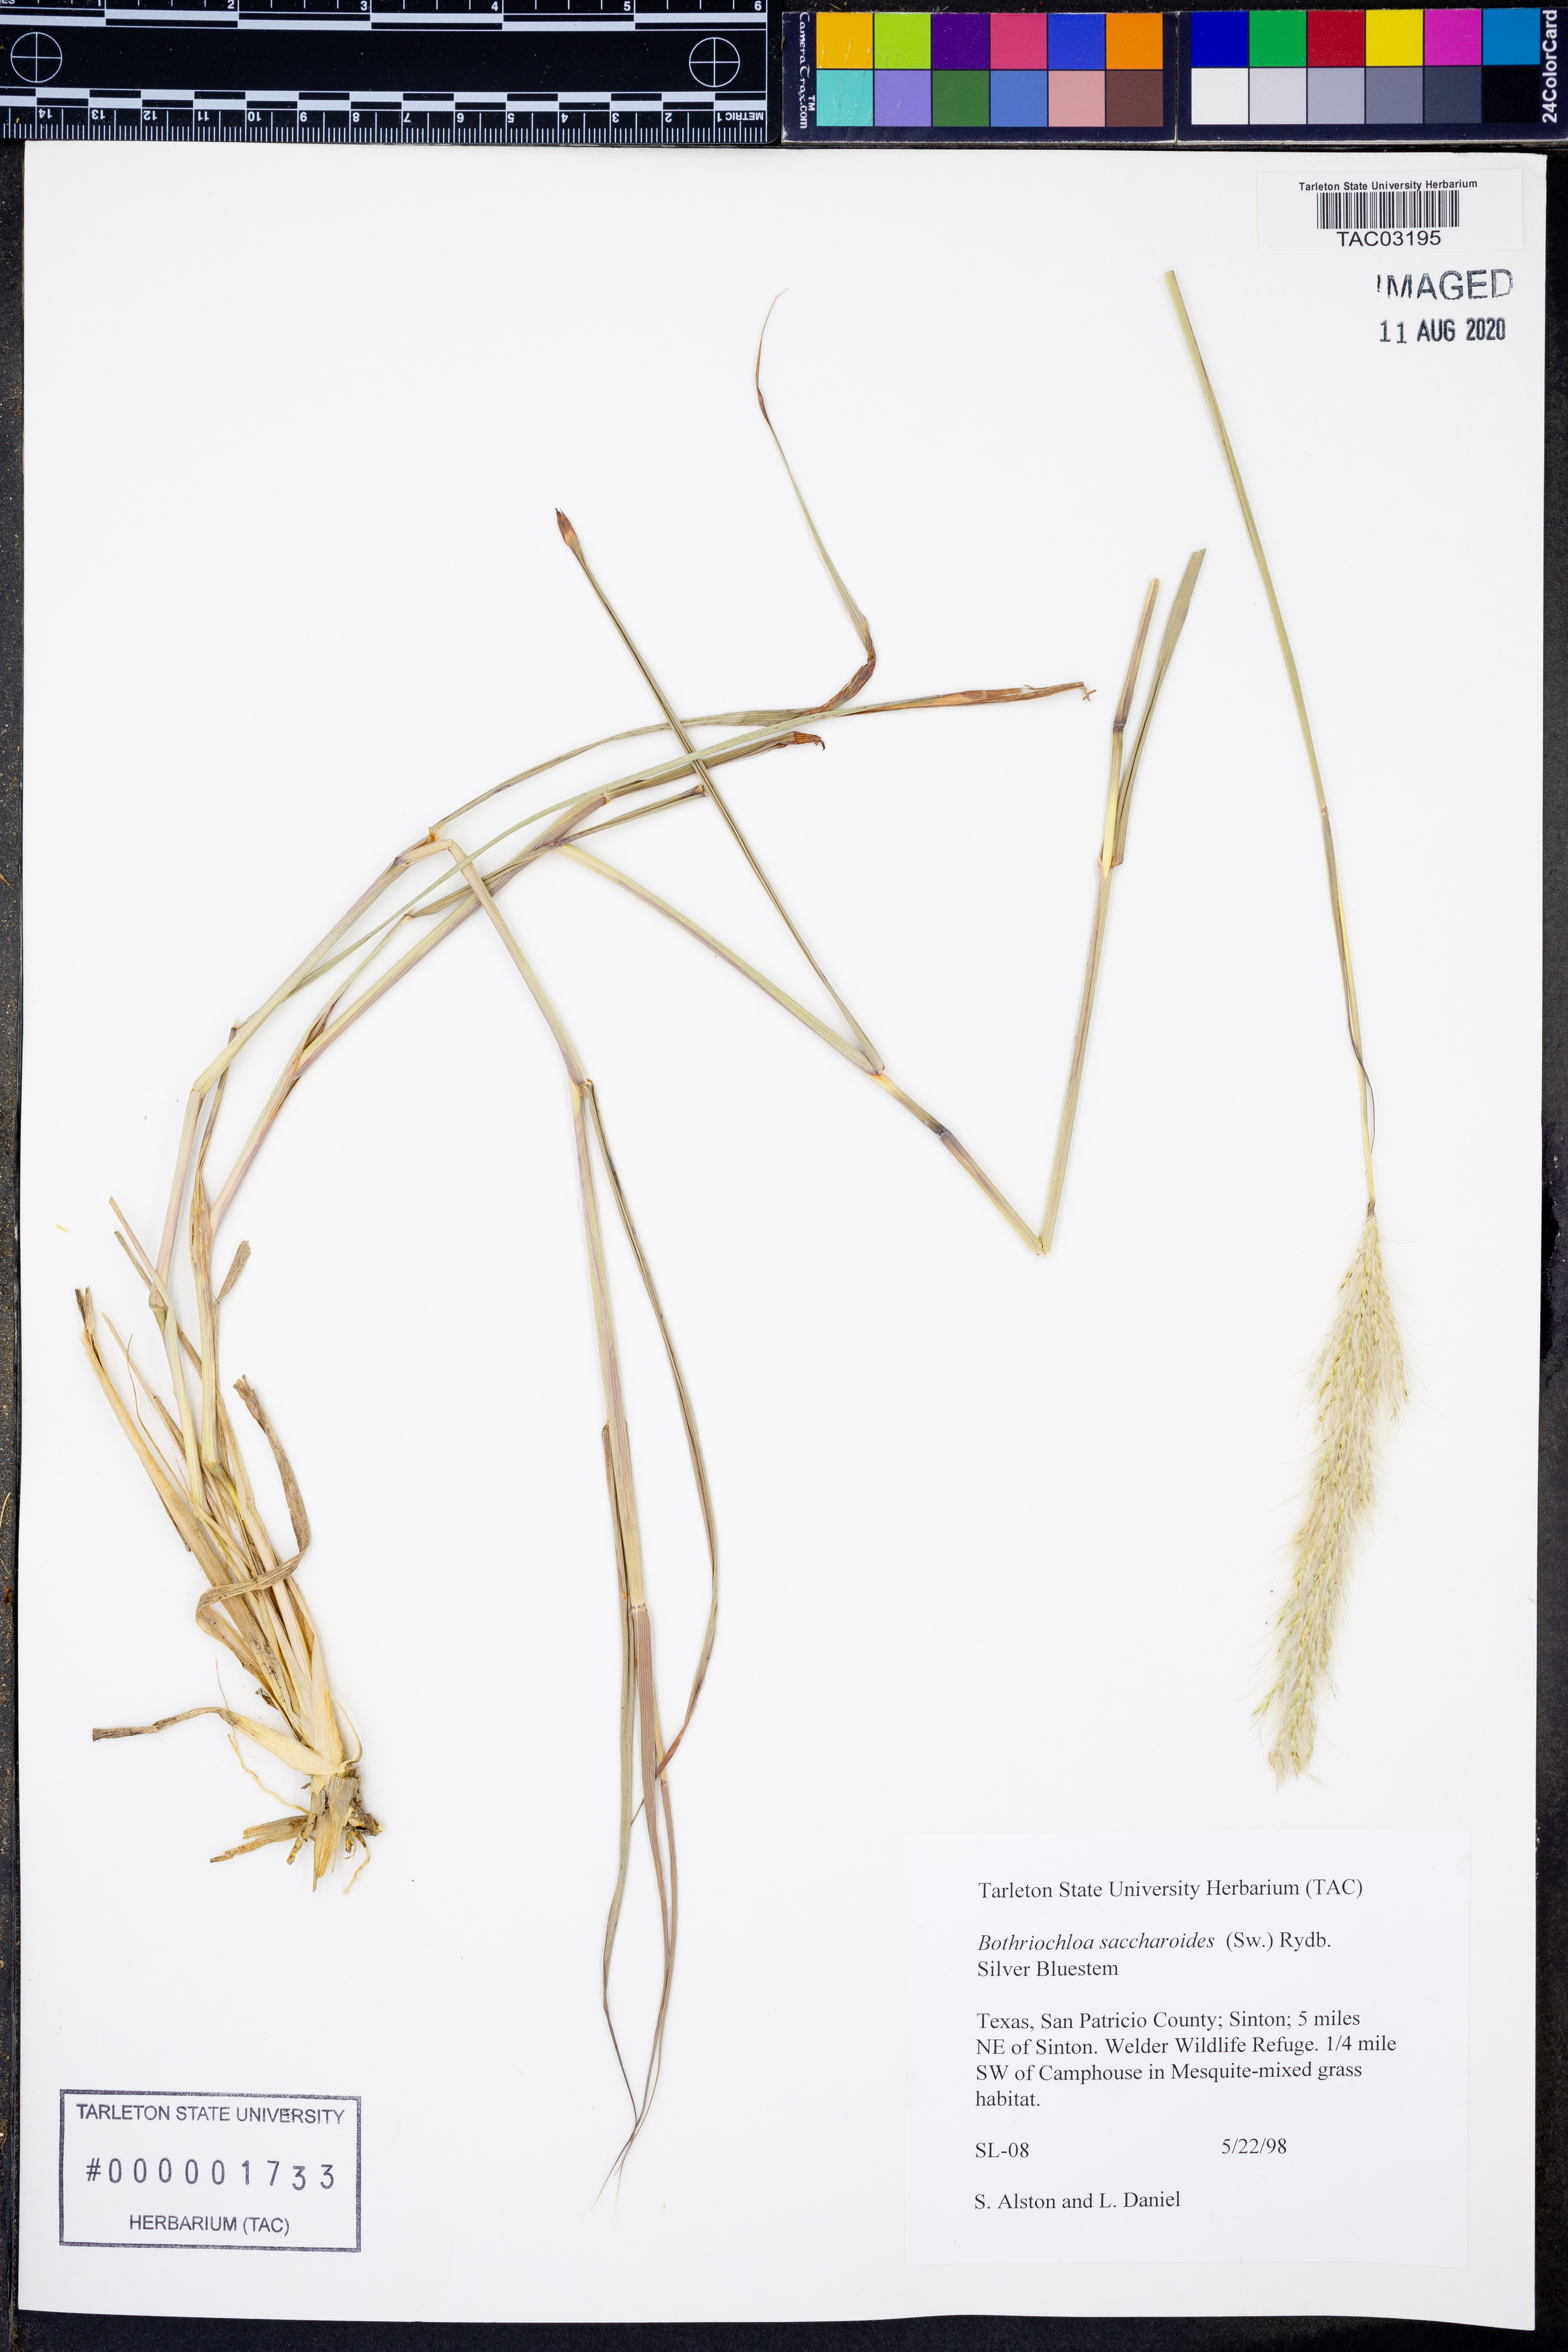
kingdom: Plantae
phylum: Tracheophyta
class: Liliopsida
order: Poales
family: Poaceae
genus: Bothriochloa
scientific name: Bothriochloa saccharoides
